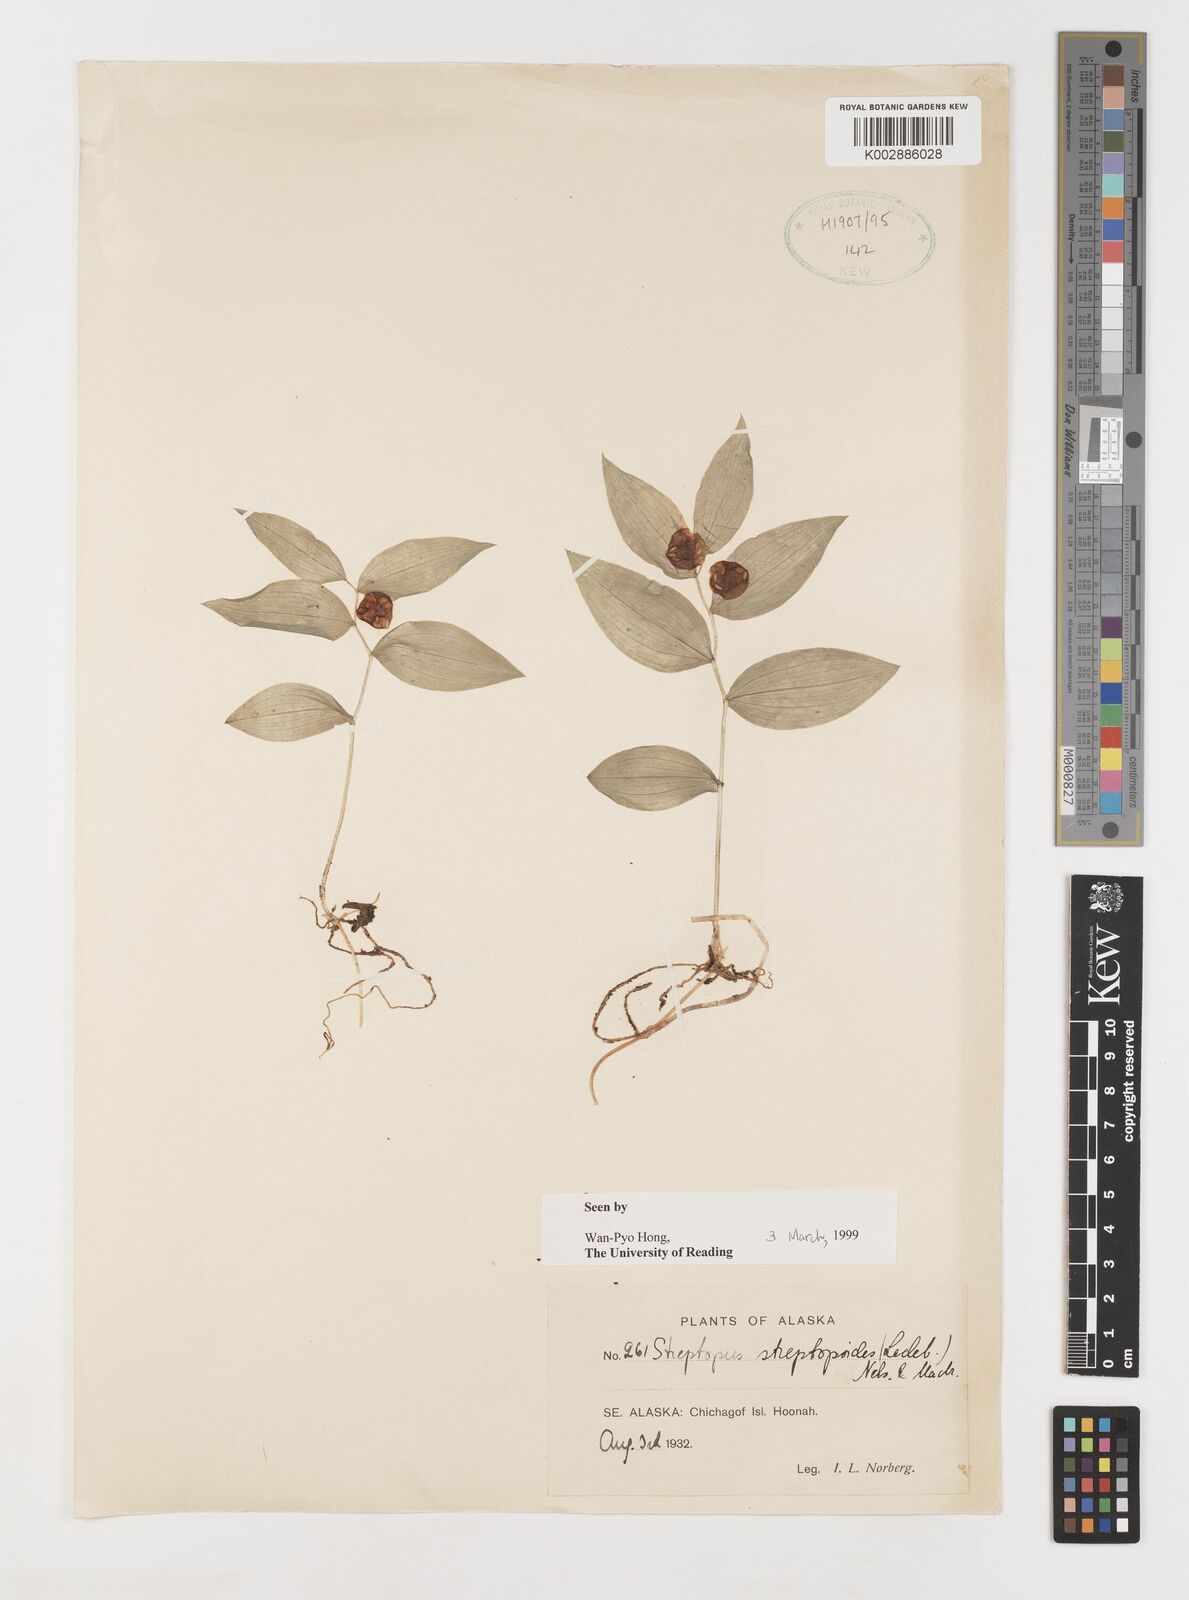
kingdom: Plantae
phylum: Tracheophyta
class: Liliopsida
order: Liliales
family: Liliaceae
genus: Streptopus
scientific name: Streptopus streptopoides
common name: Small twisted-stalk
